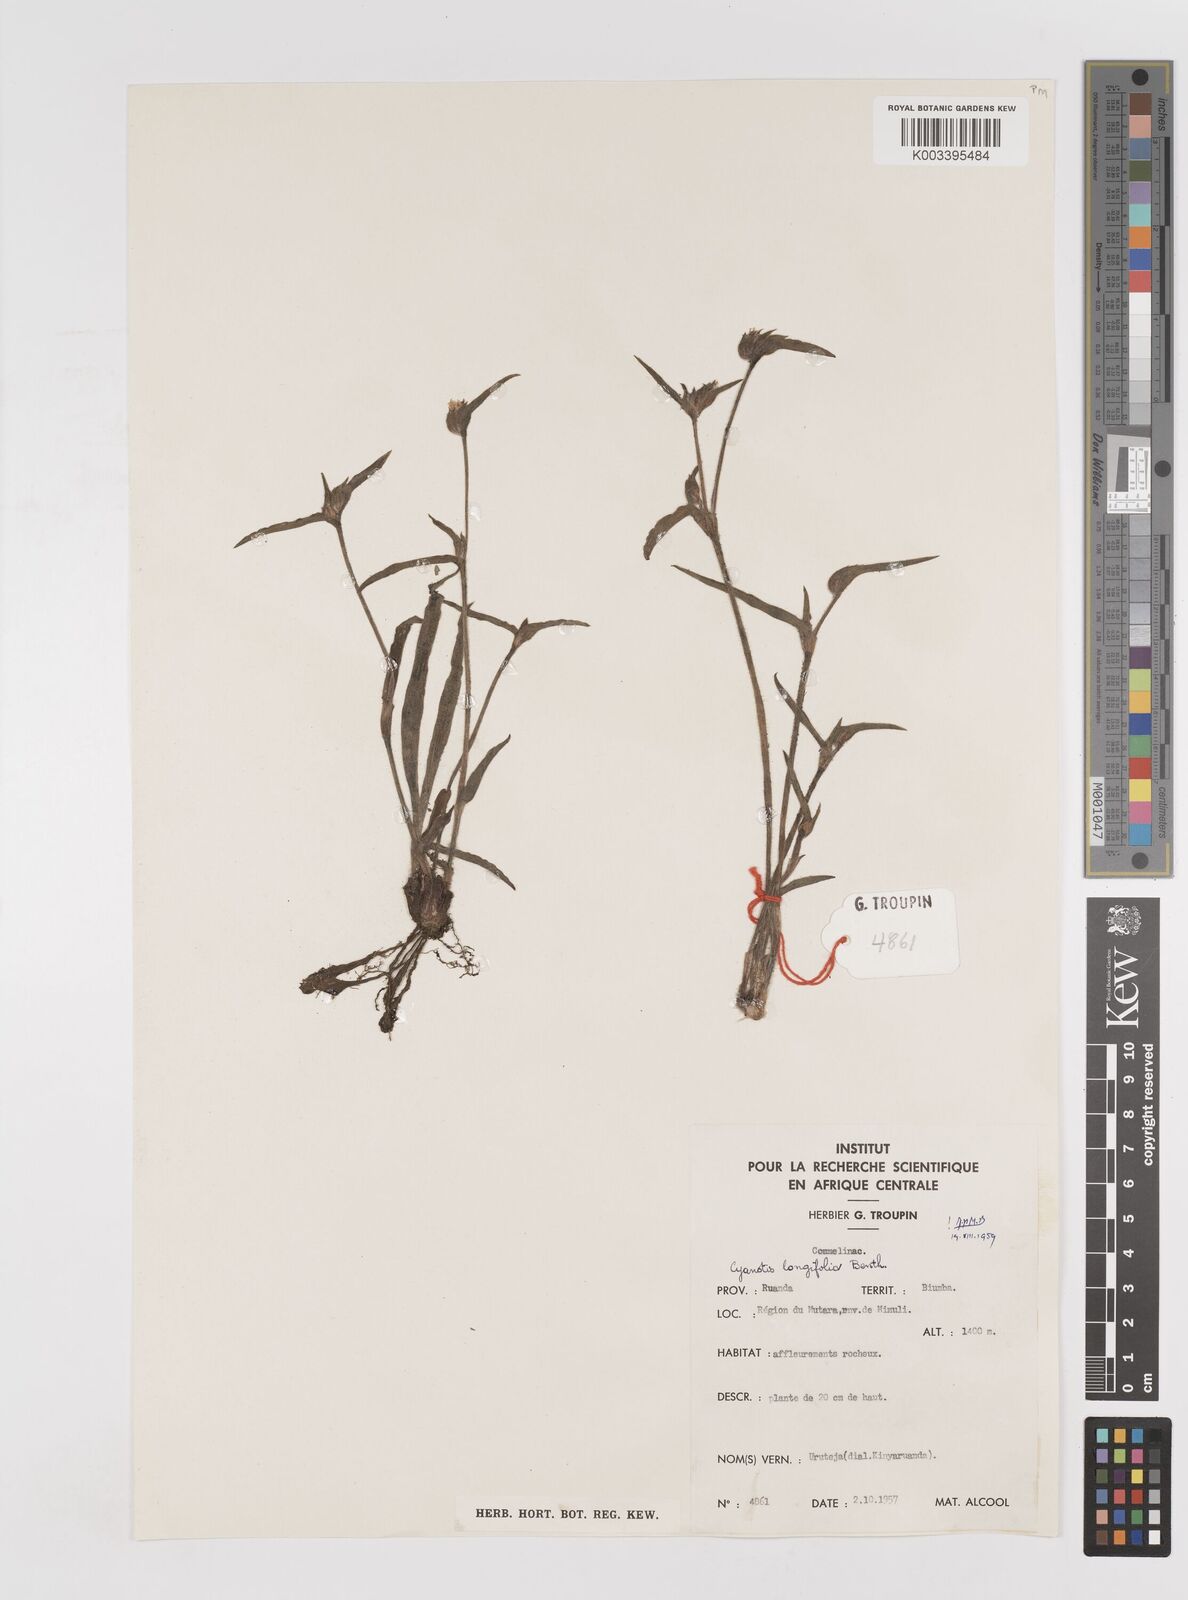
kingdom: Plantae
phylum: Tracheophyta
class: Liliopsida
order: Commelinales
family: Commelinaceae
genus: Cyanotis
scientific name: Cyanotis longifolia
